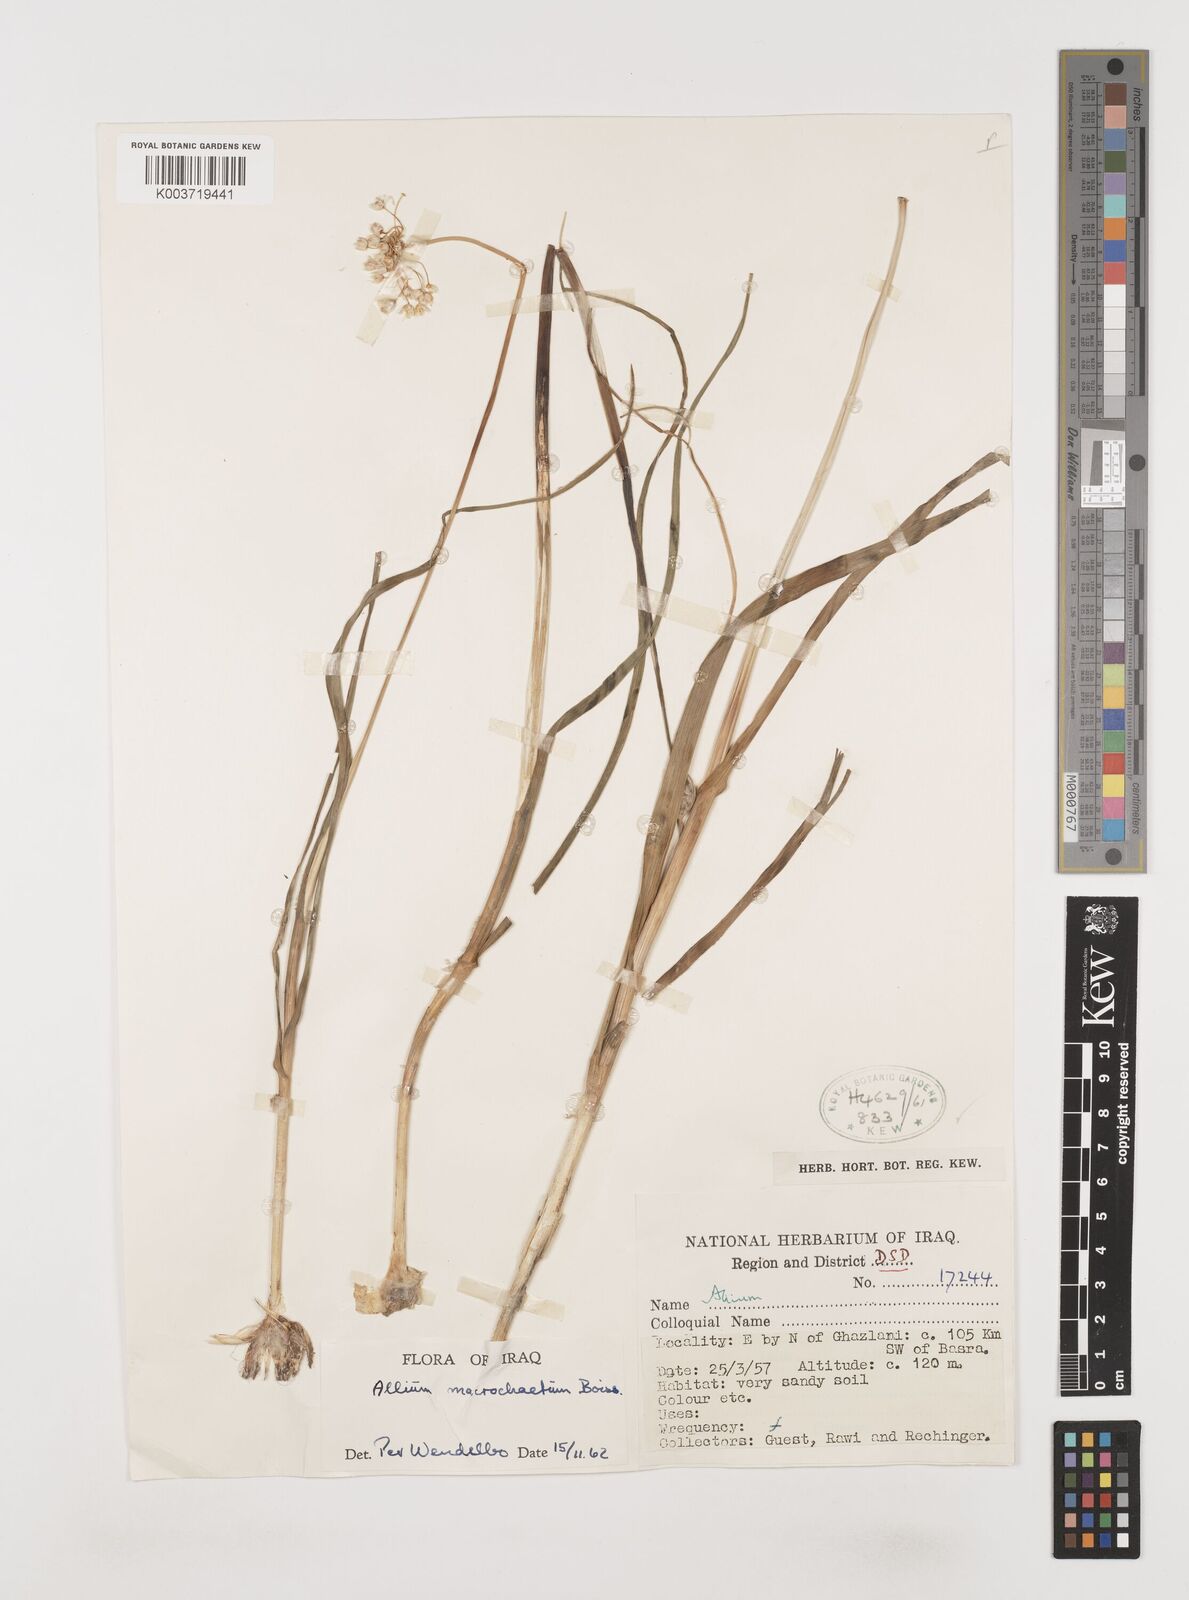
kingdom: Plantae
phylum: Tracheophyta
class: Liliopsida
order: Asparagales
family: Amaryllidaceae
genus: Allium
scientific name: Allium deserti-syriaci
